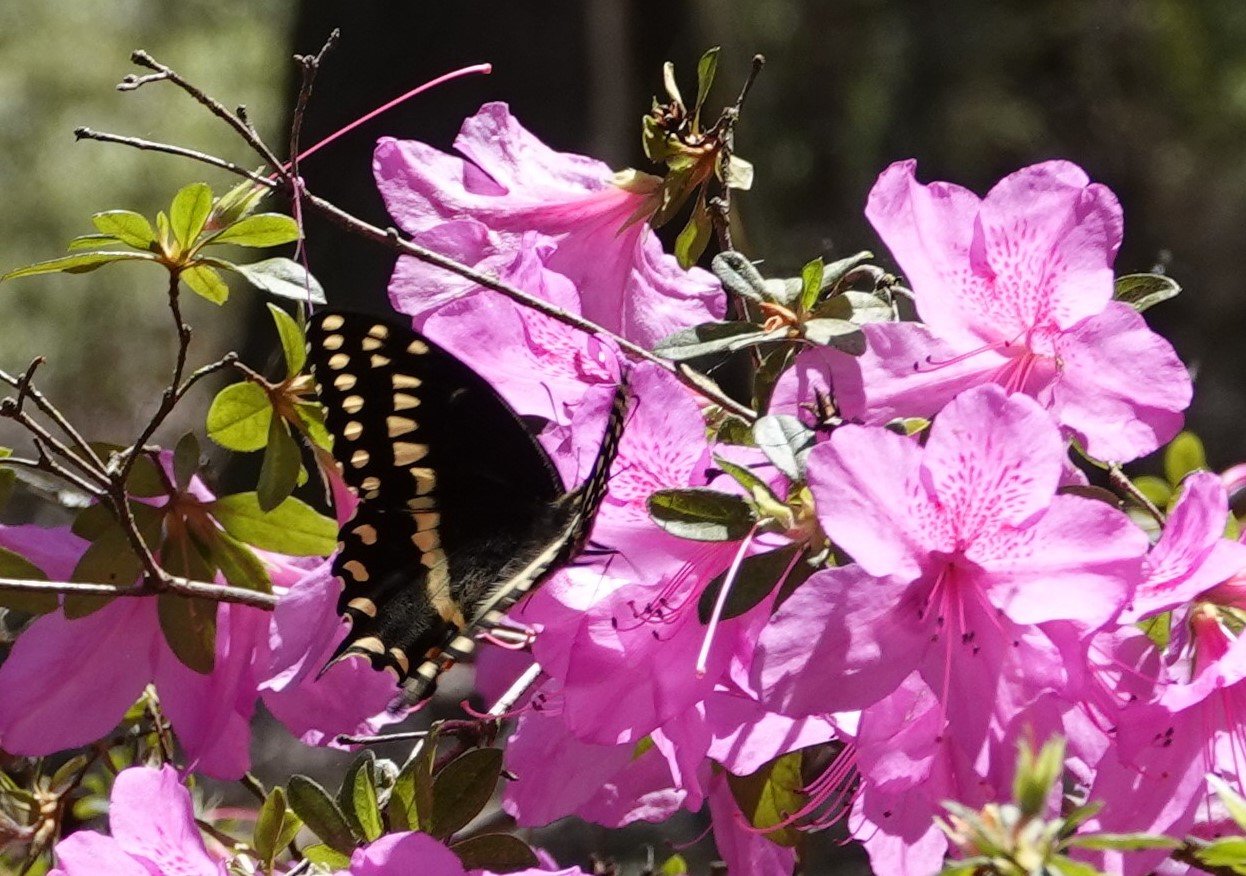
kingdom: Animalia
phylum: Arthropoda
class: Insecta
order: Lepidoptera
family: Papilionidae
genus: Pterourus
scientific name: Pterourus palamedes
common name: Palamedes Swallowtail
